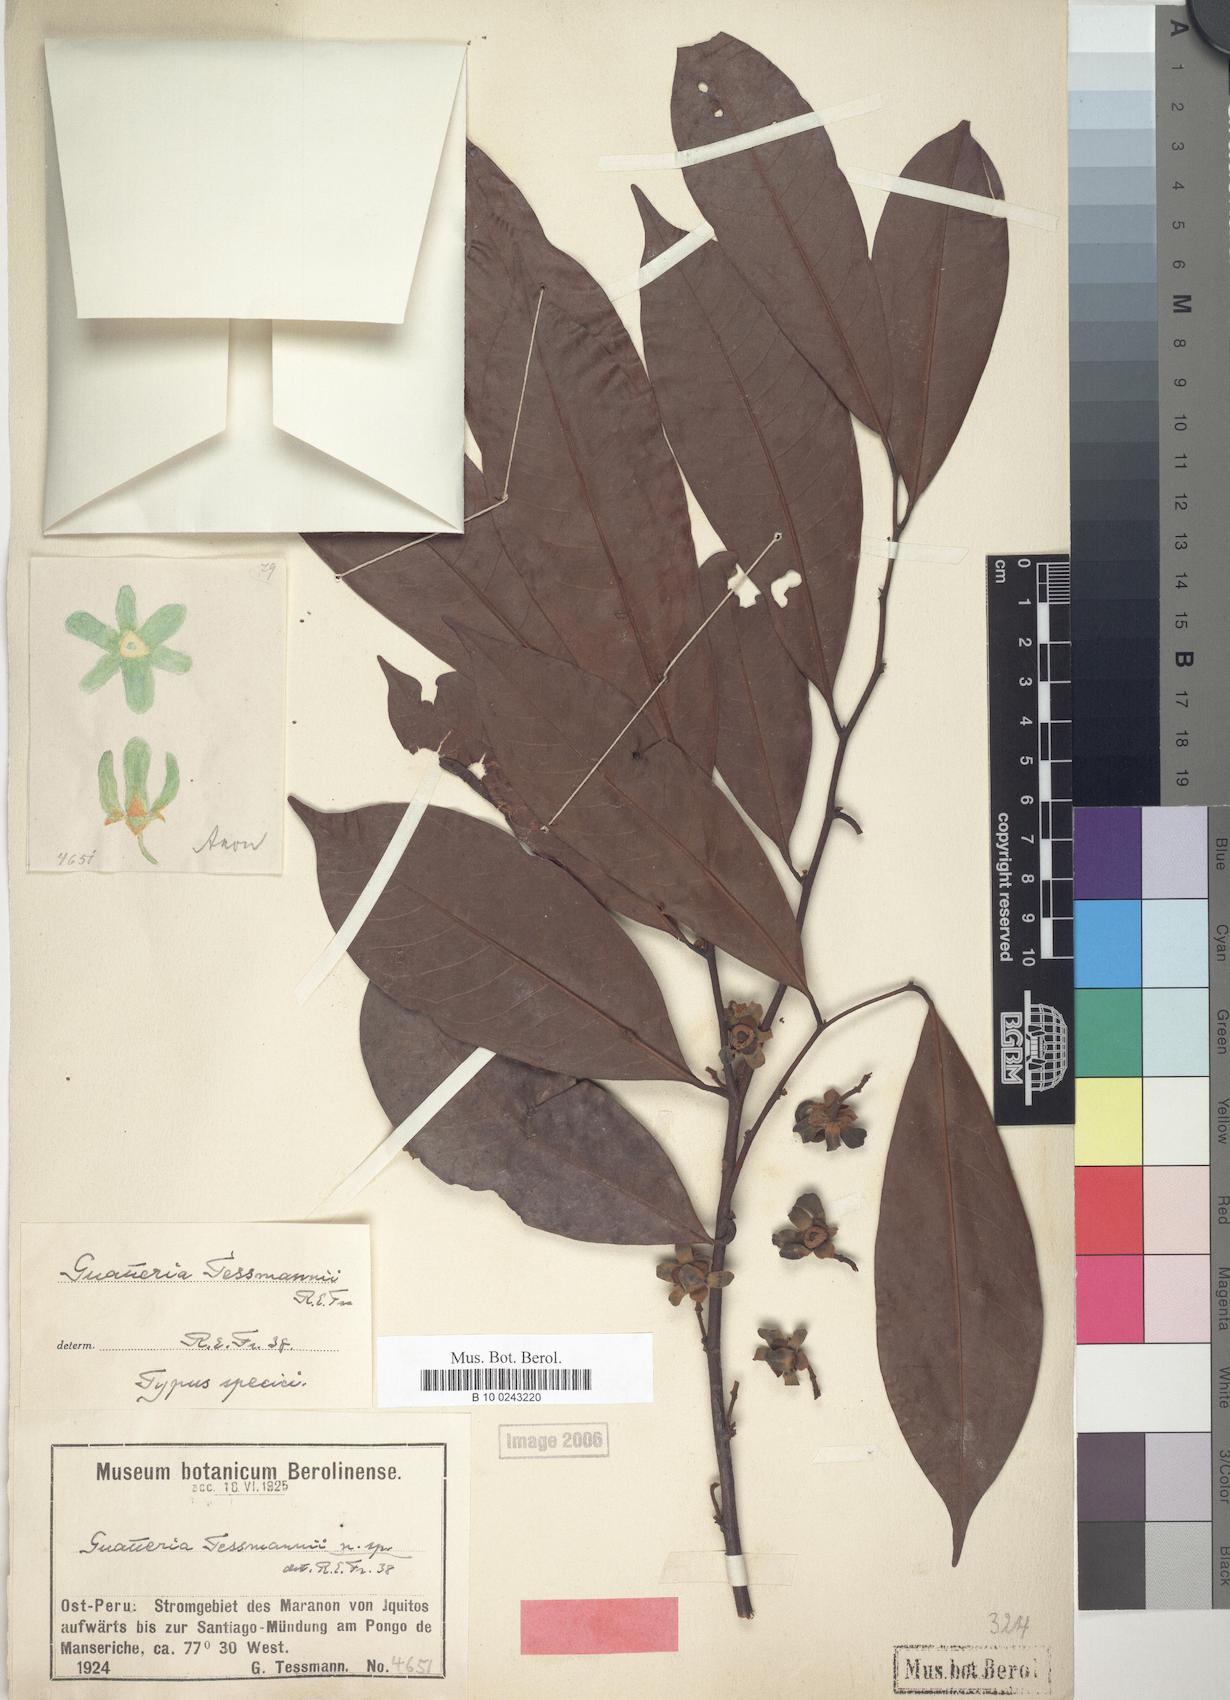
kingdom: Plantae
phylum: Tracheophyta
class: Magnoliopsida
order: Magnoliales
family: Annonaceae
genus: Guatteria
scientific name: Guatteria modesta
